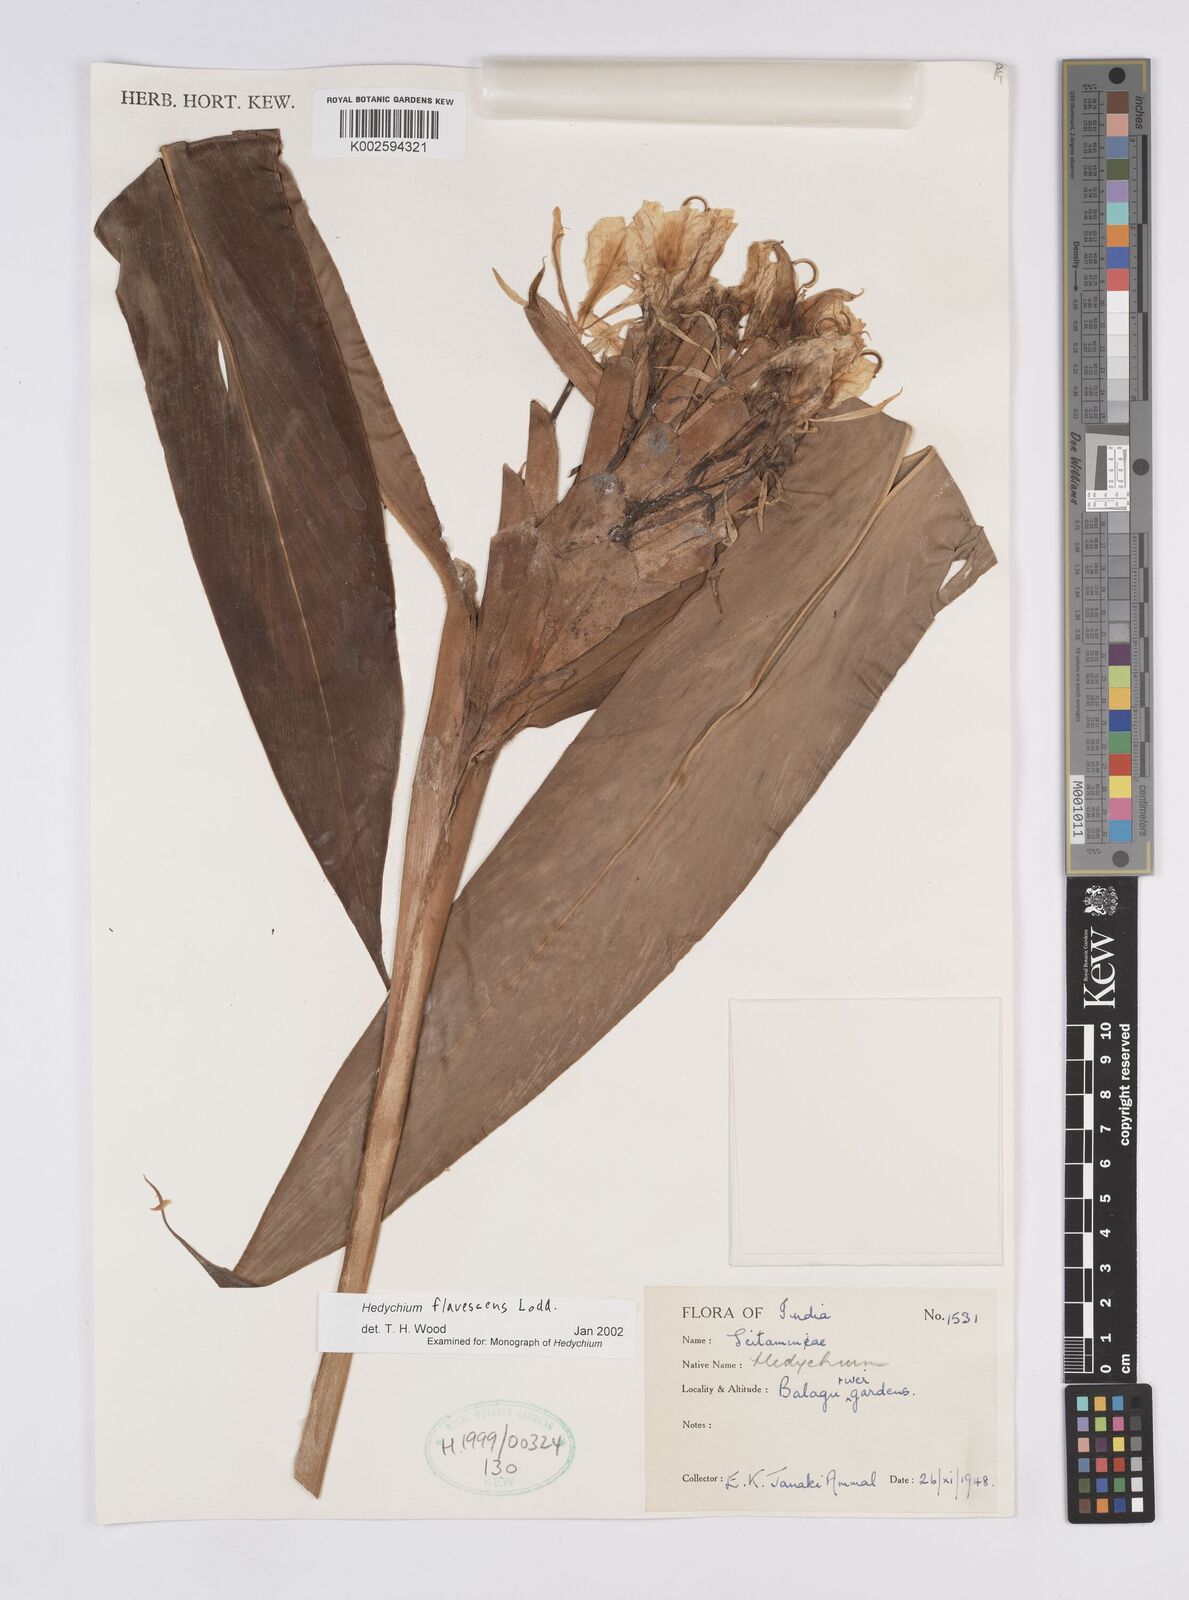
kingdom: Plantae
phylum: Tracheophyta
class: Liliopsida
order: Zingiberales
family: Zingiberaceae
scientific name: Zingiberaceae
